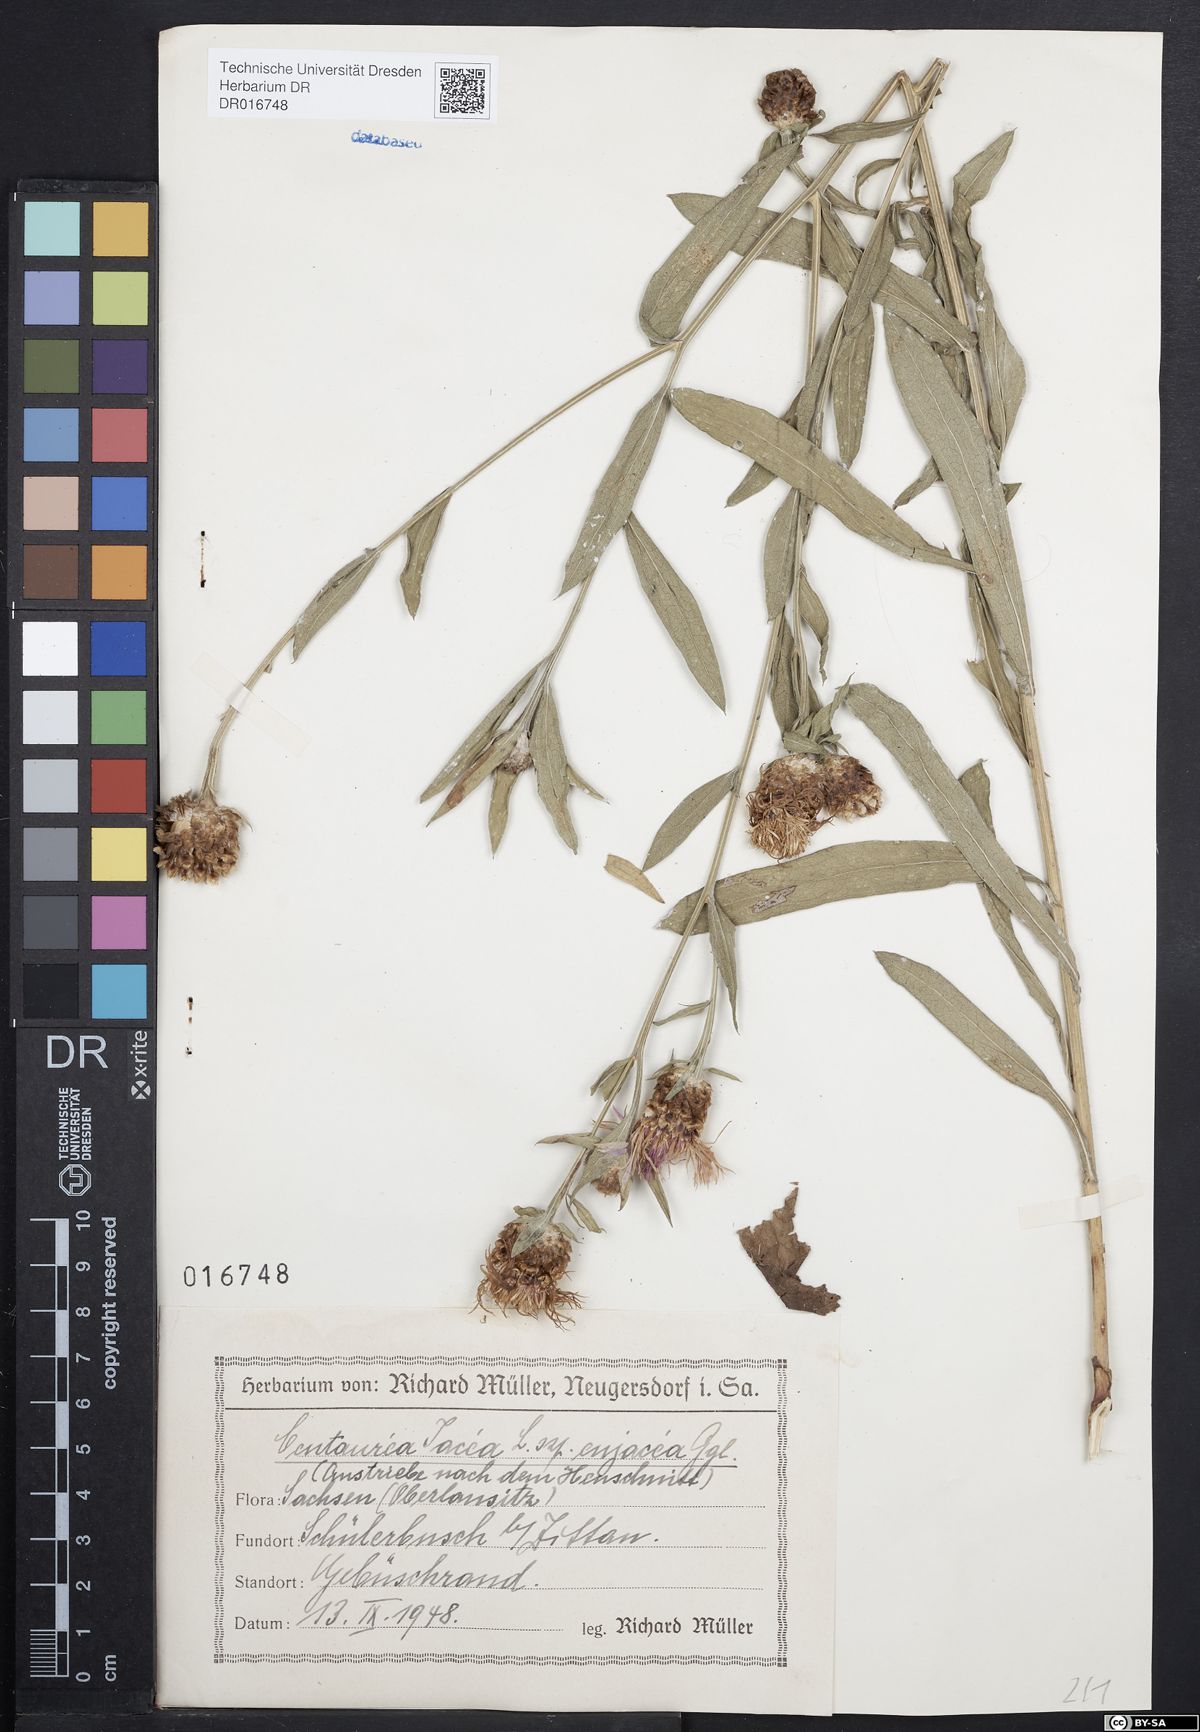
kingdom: Plantae
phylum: Tracheophyta
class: Magnoliopsida
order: Asterales
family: Asteraceae
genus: Centaurea
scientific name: Centaurea jacea
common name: Brown knapweed
